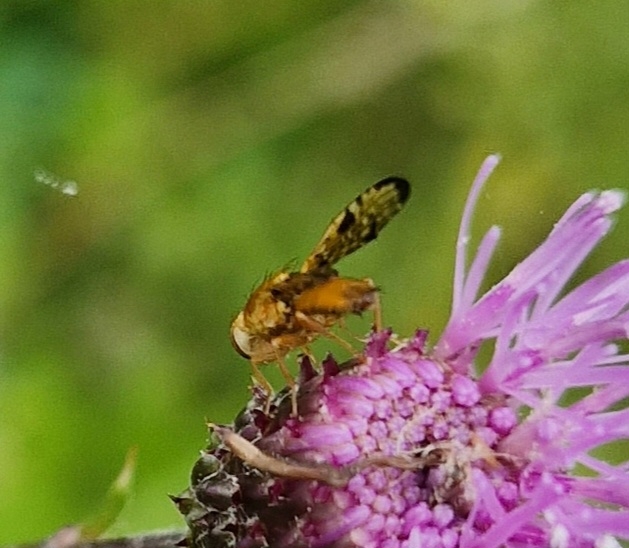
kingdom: Animalia
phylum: Arthropoda
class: Insecta
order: Diptera
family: Tephritidae
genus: Xyphosia
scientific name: Xyphosia miliaria
